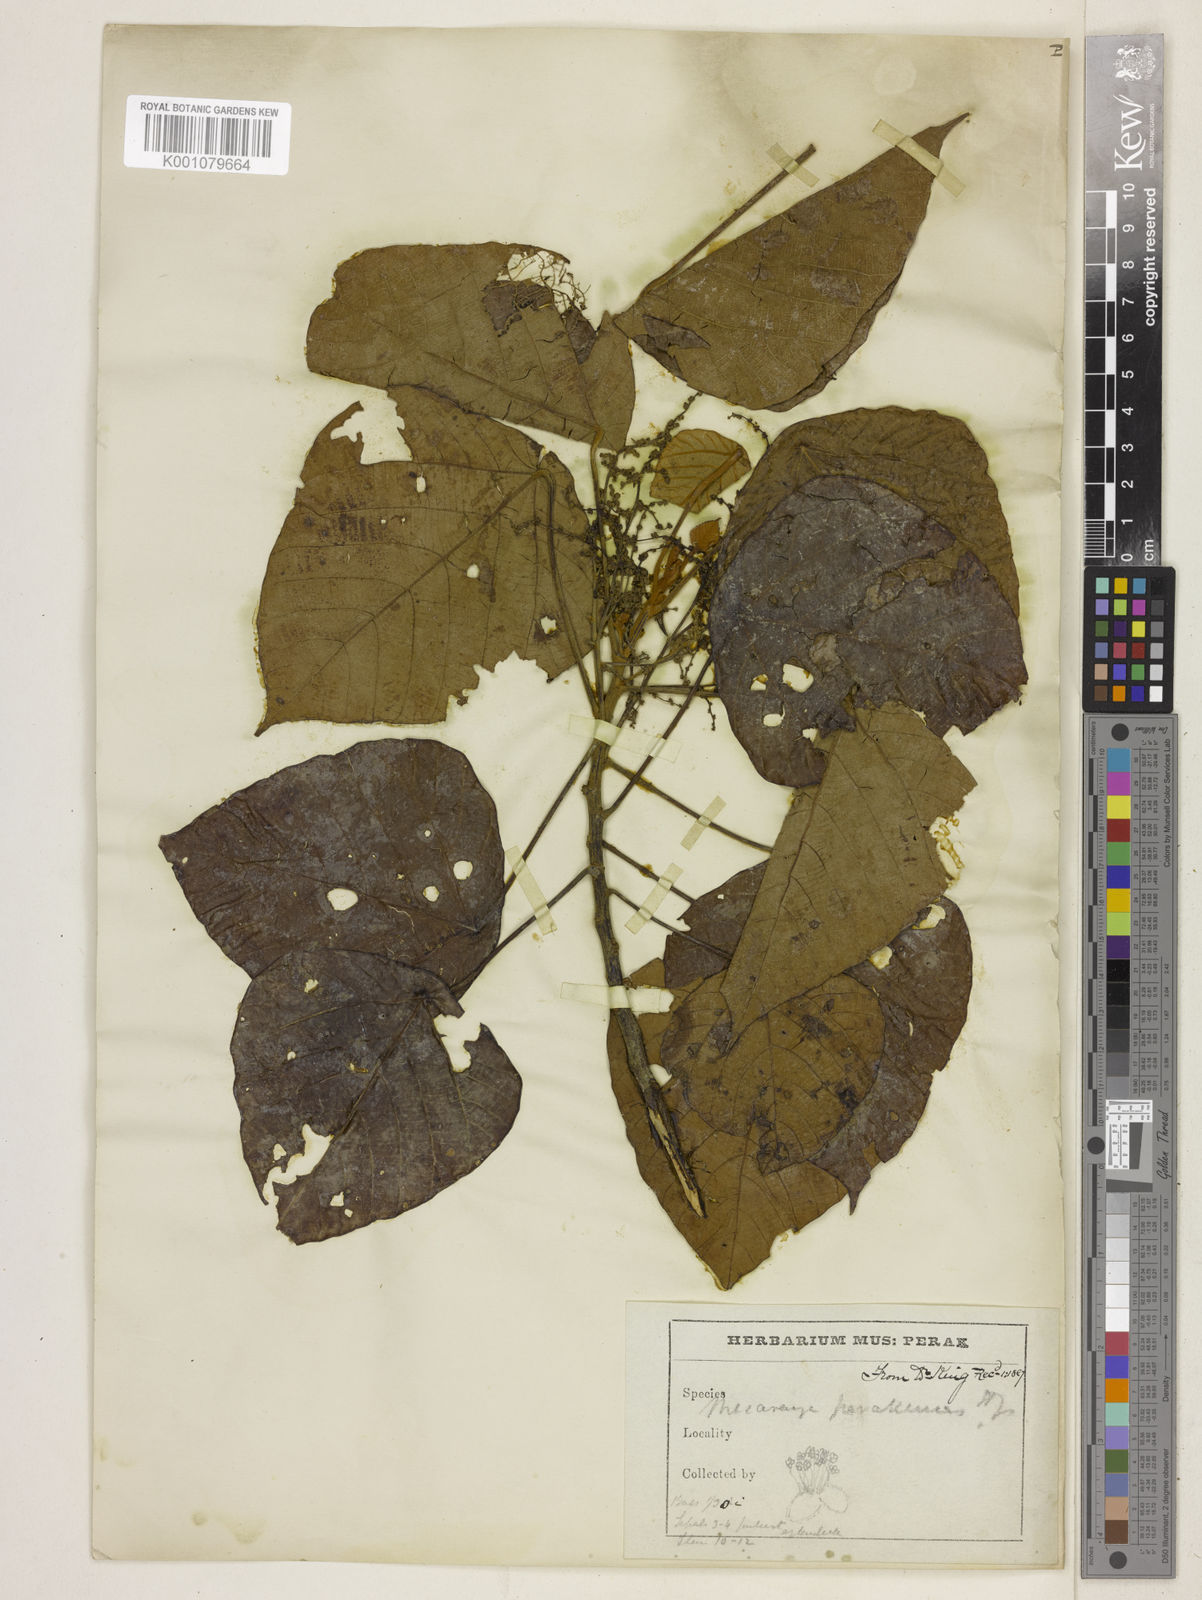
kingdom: Plantae
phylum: Tracheophyta
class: Magnoliopsida
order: Malpighiales
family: Euphorbiaceae
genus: Macaranga
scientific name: Macaranga
